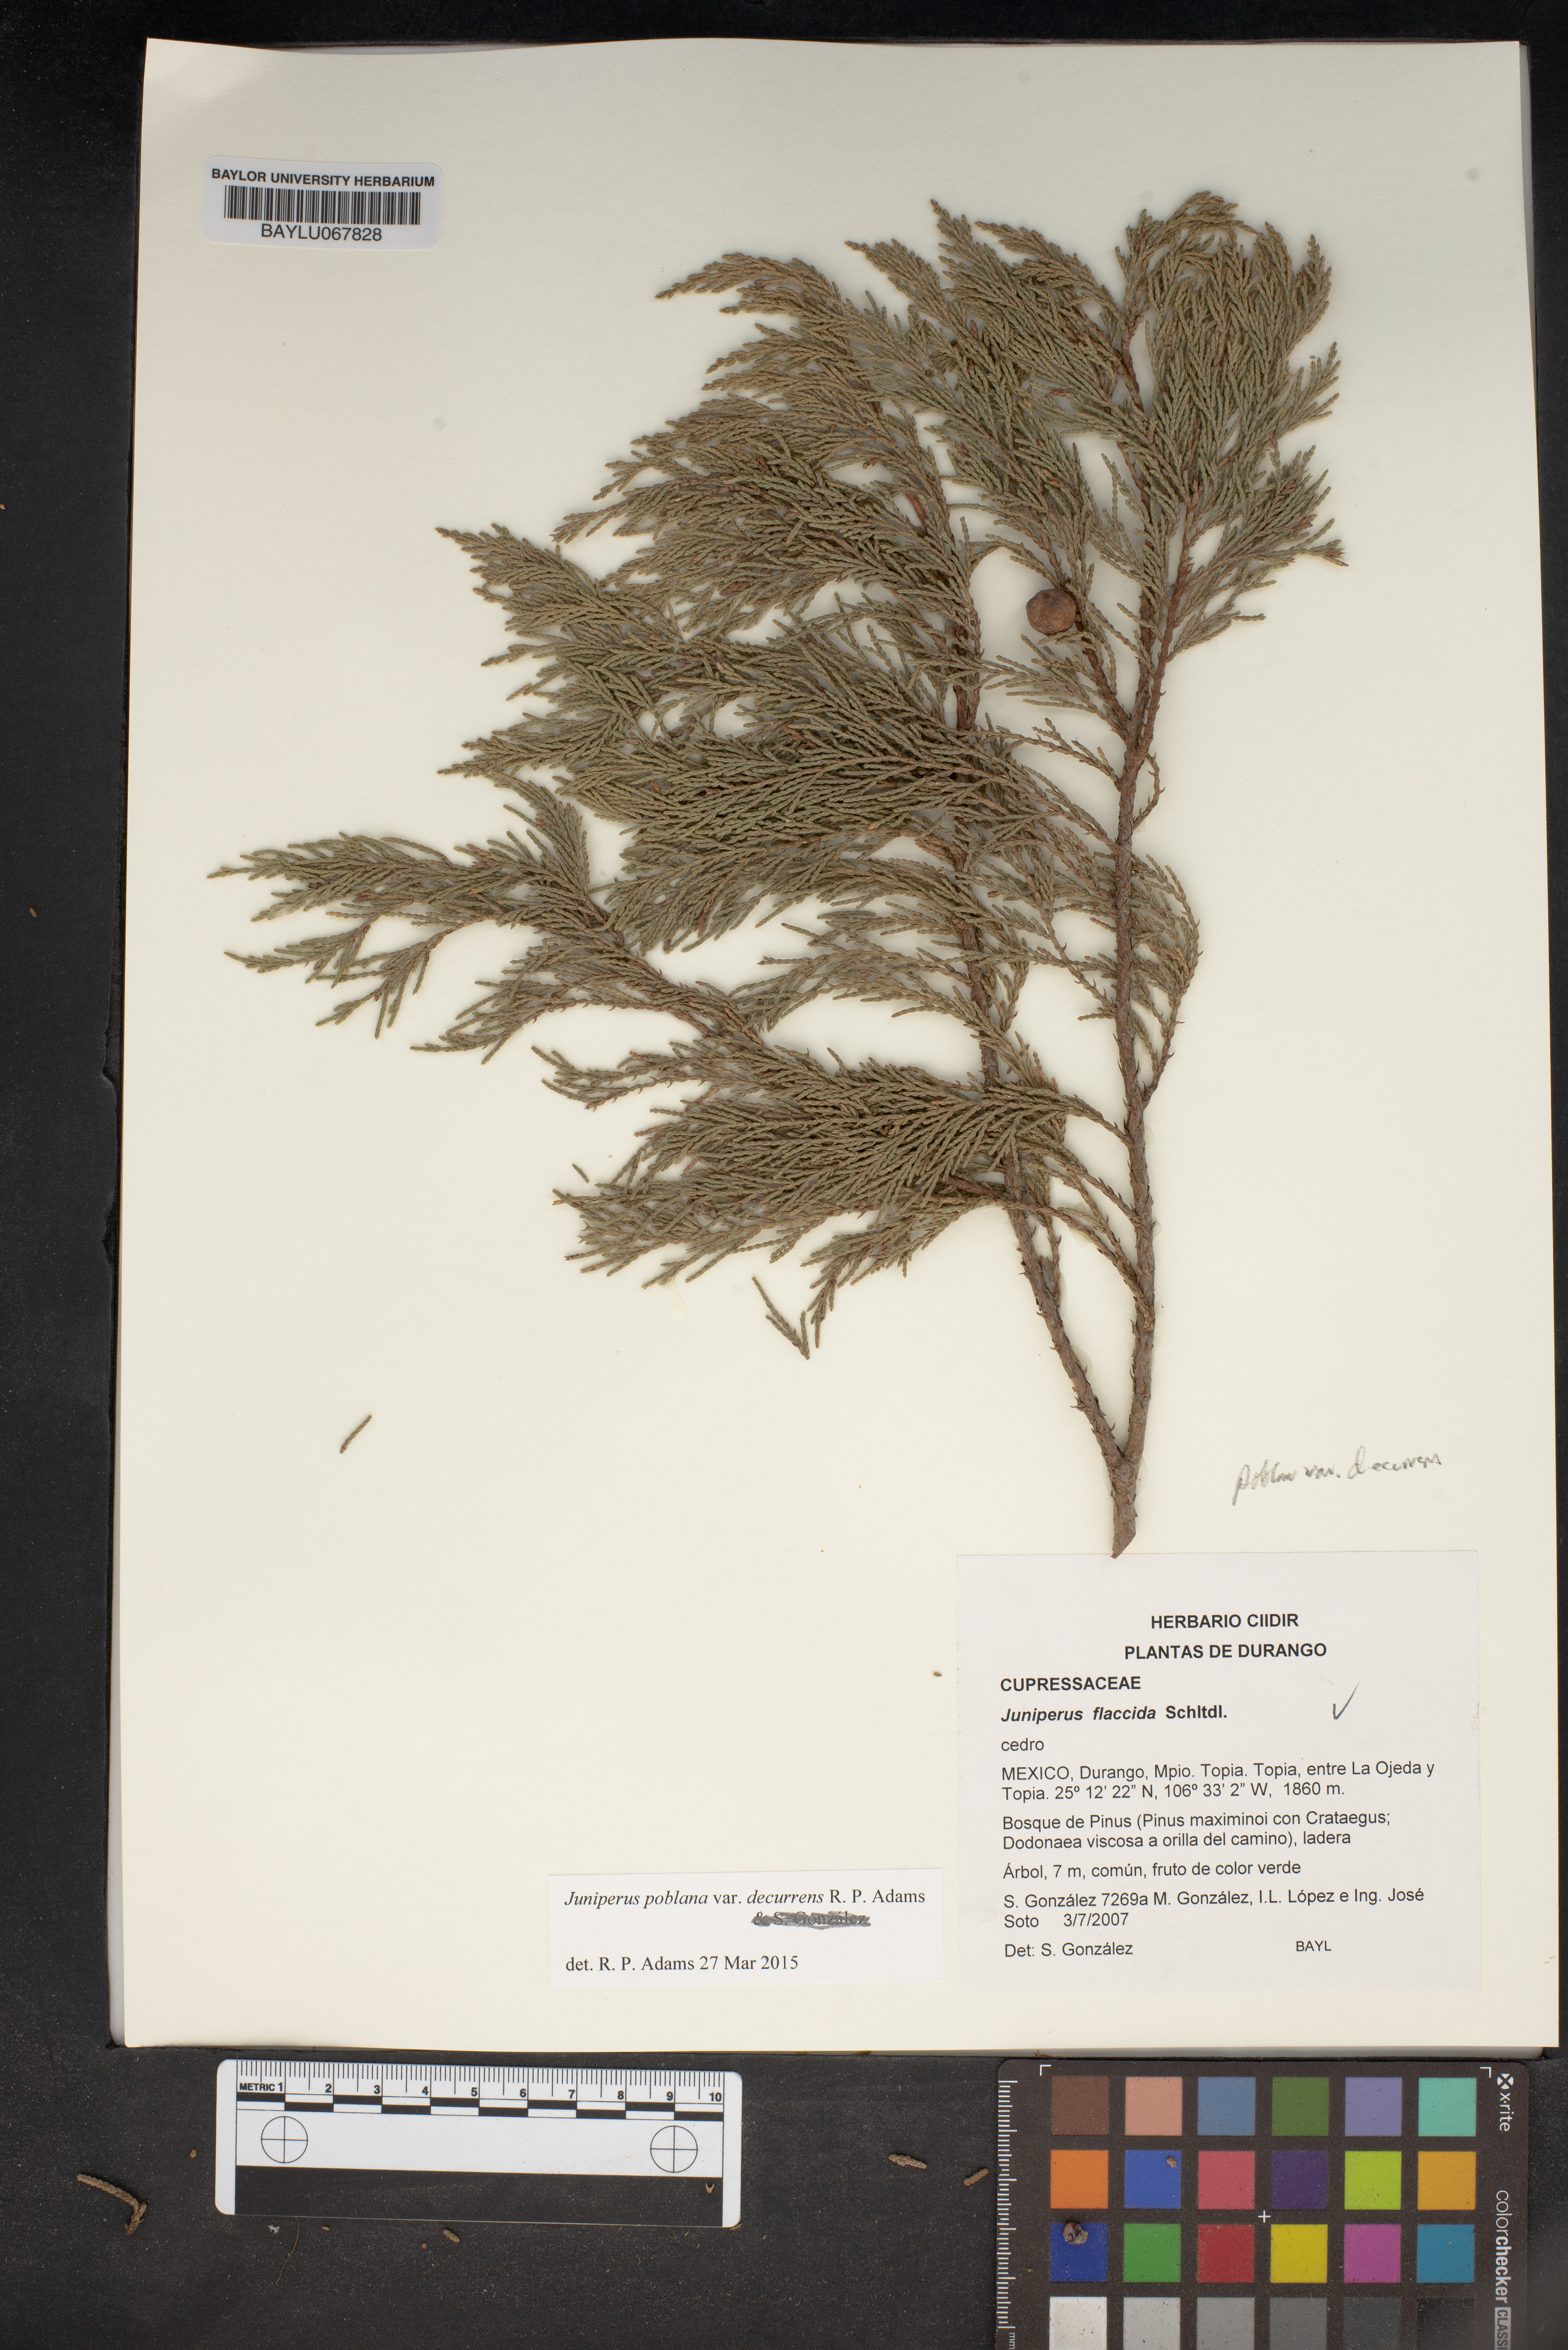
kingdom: Plantae
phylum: Tracheophyta
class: Pinopsida
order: Pinales
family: Cupressaceae
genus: Juniperus
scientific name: Juniperus flaccida
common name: Drooping juniper
